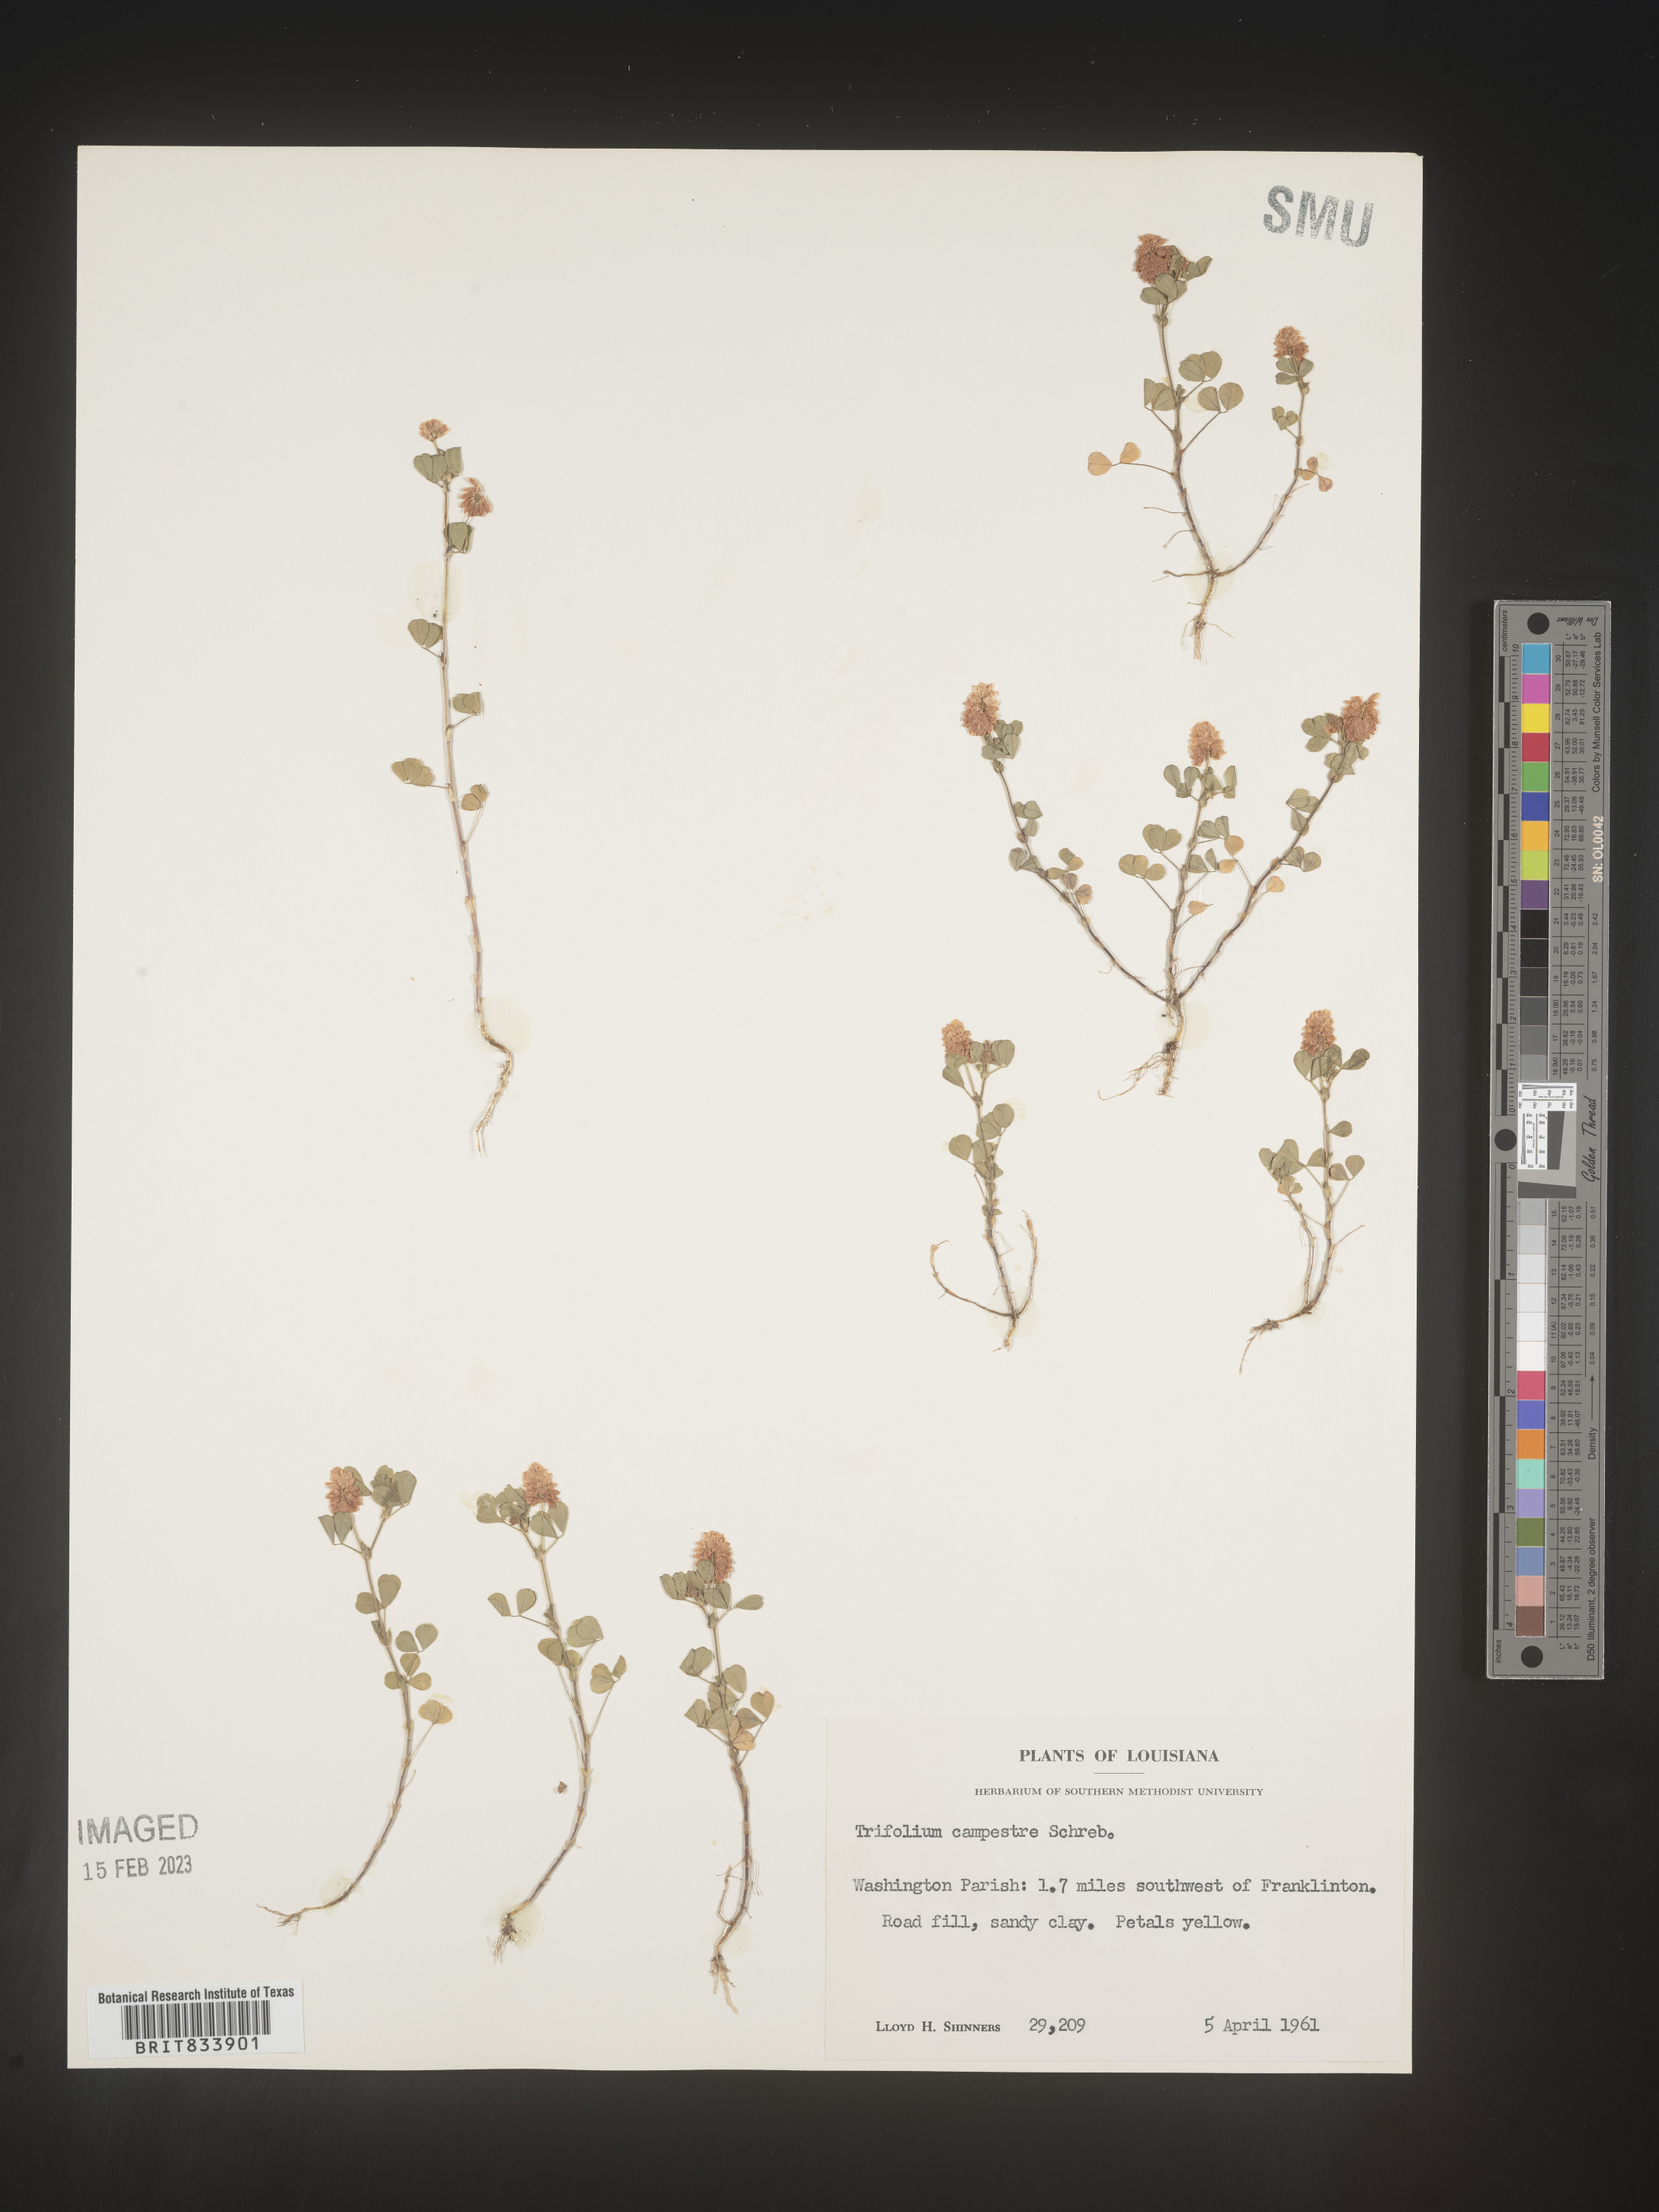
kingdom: Plantae
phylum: Tracheophyta
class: Magnoliopsida
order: Fabales
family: Fabaceae
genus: Trifolium
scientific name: Trifolium campestre
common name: Field clover
